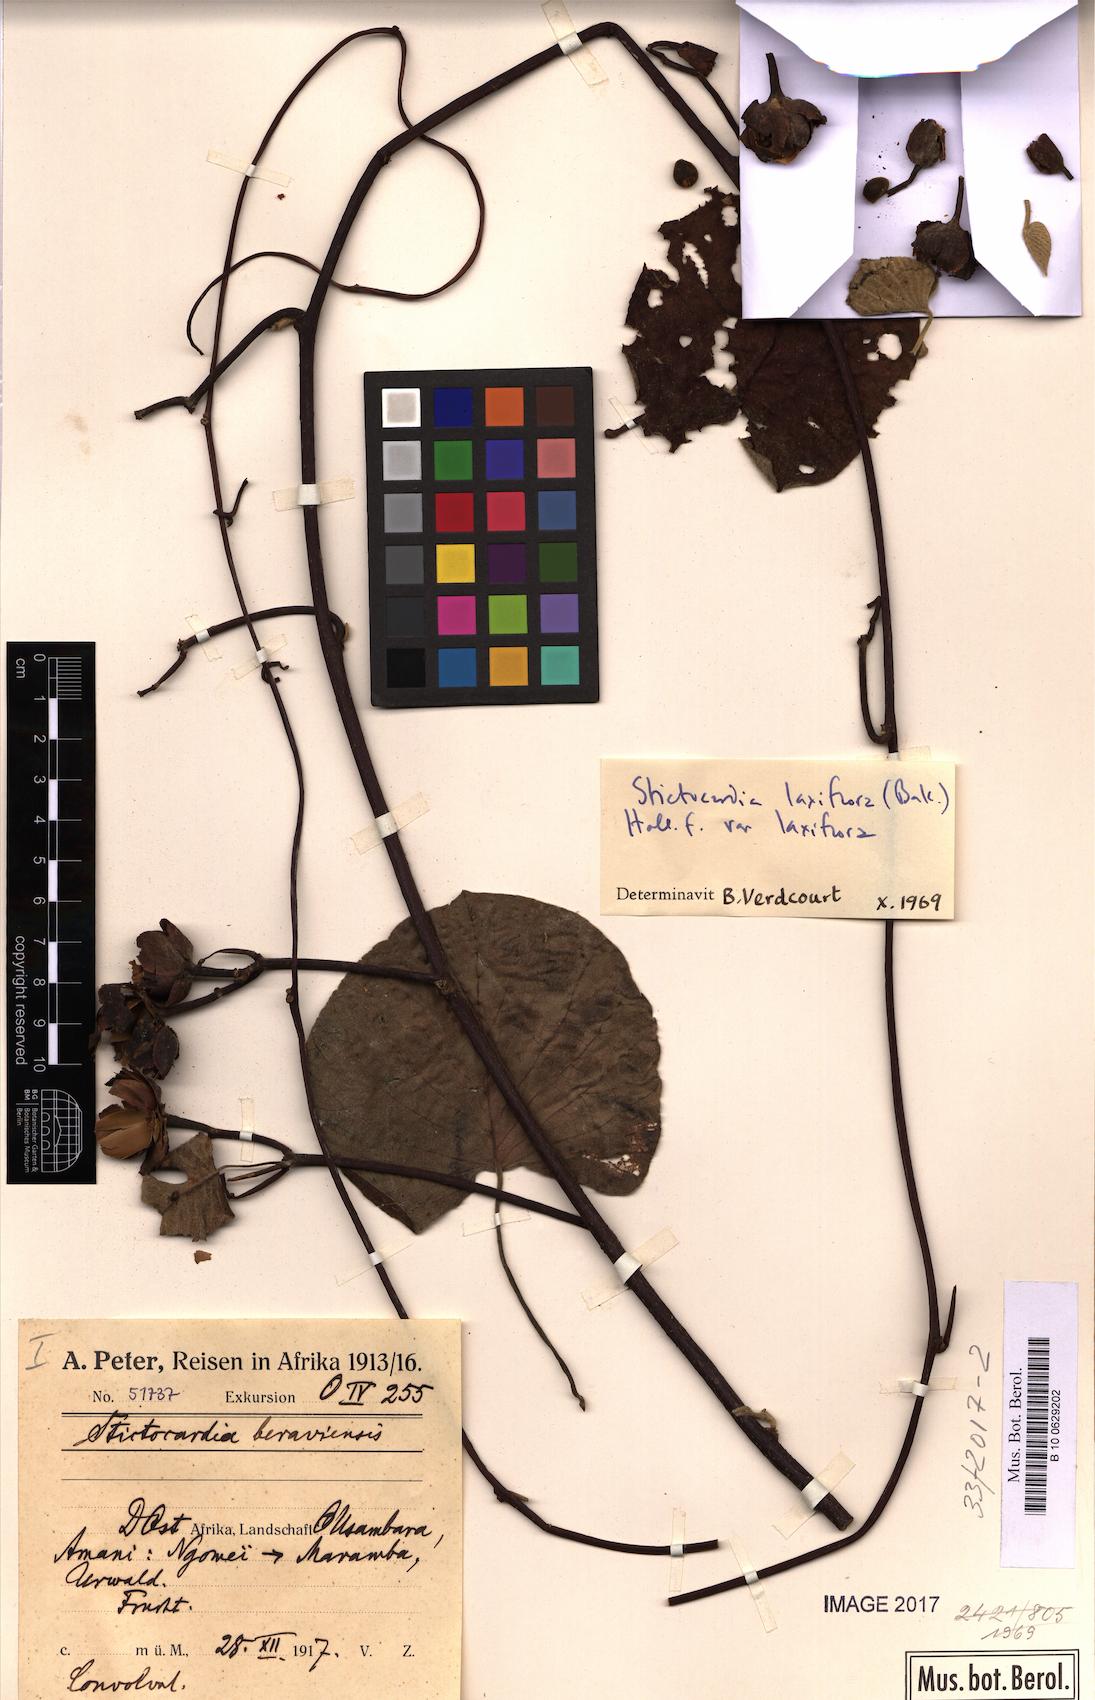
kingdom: Plantae
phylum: Tracheophyta
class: Magnoliopsida
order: Solanales
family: Convolvulaceae
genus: Stictocardia
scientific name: Stictocardia laxiflora
